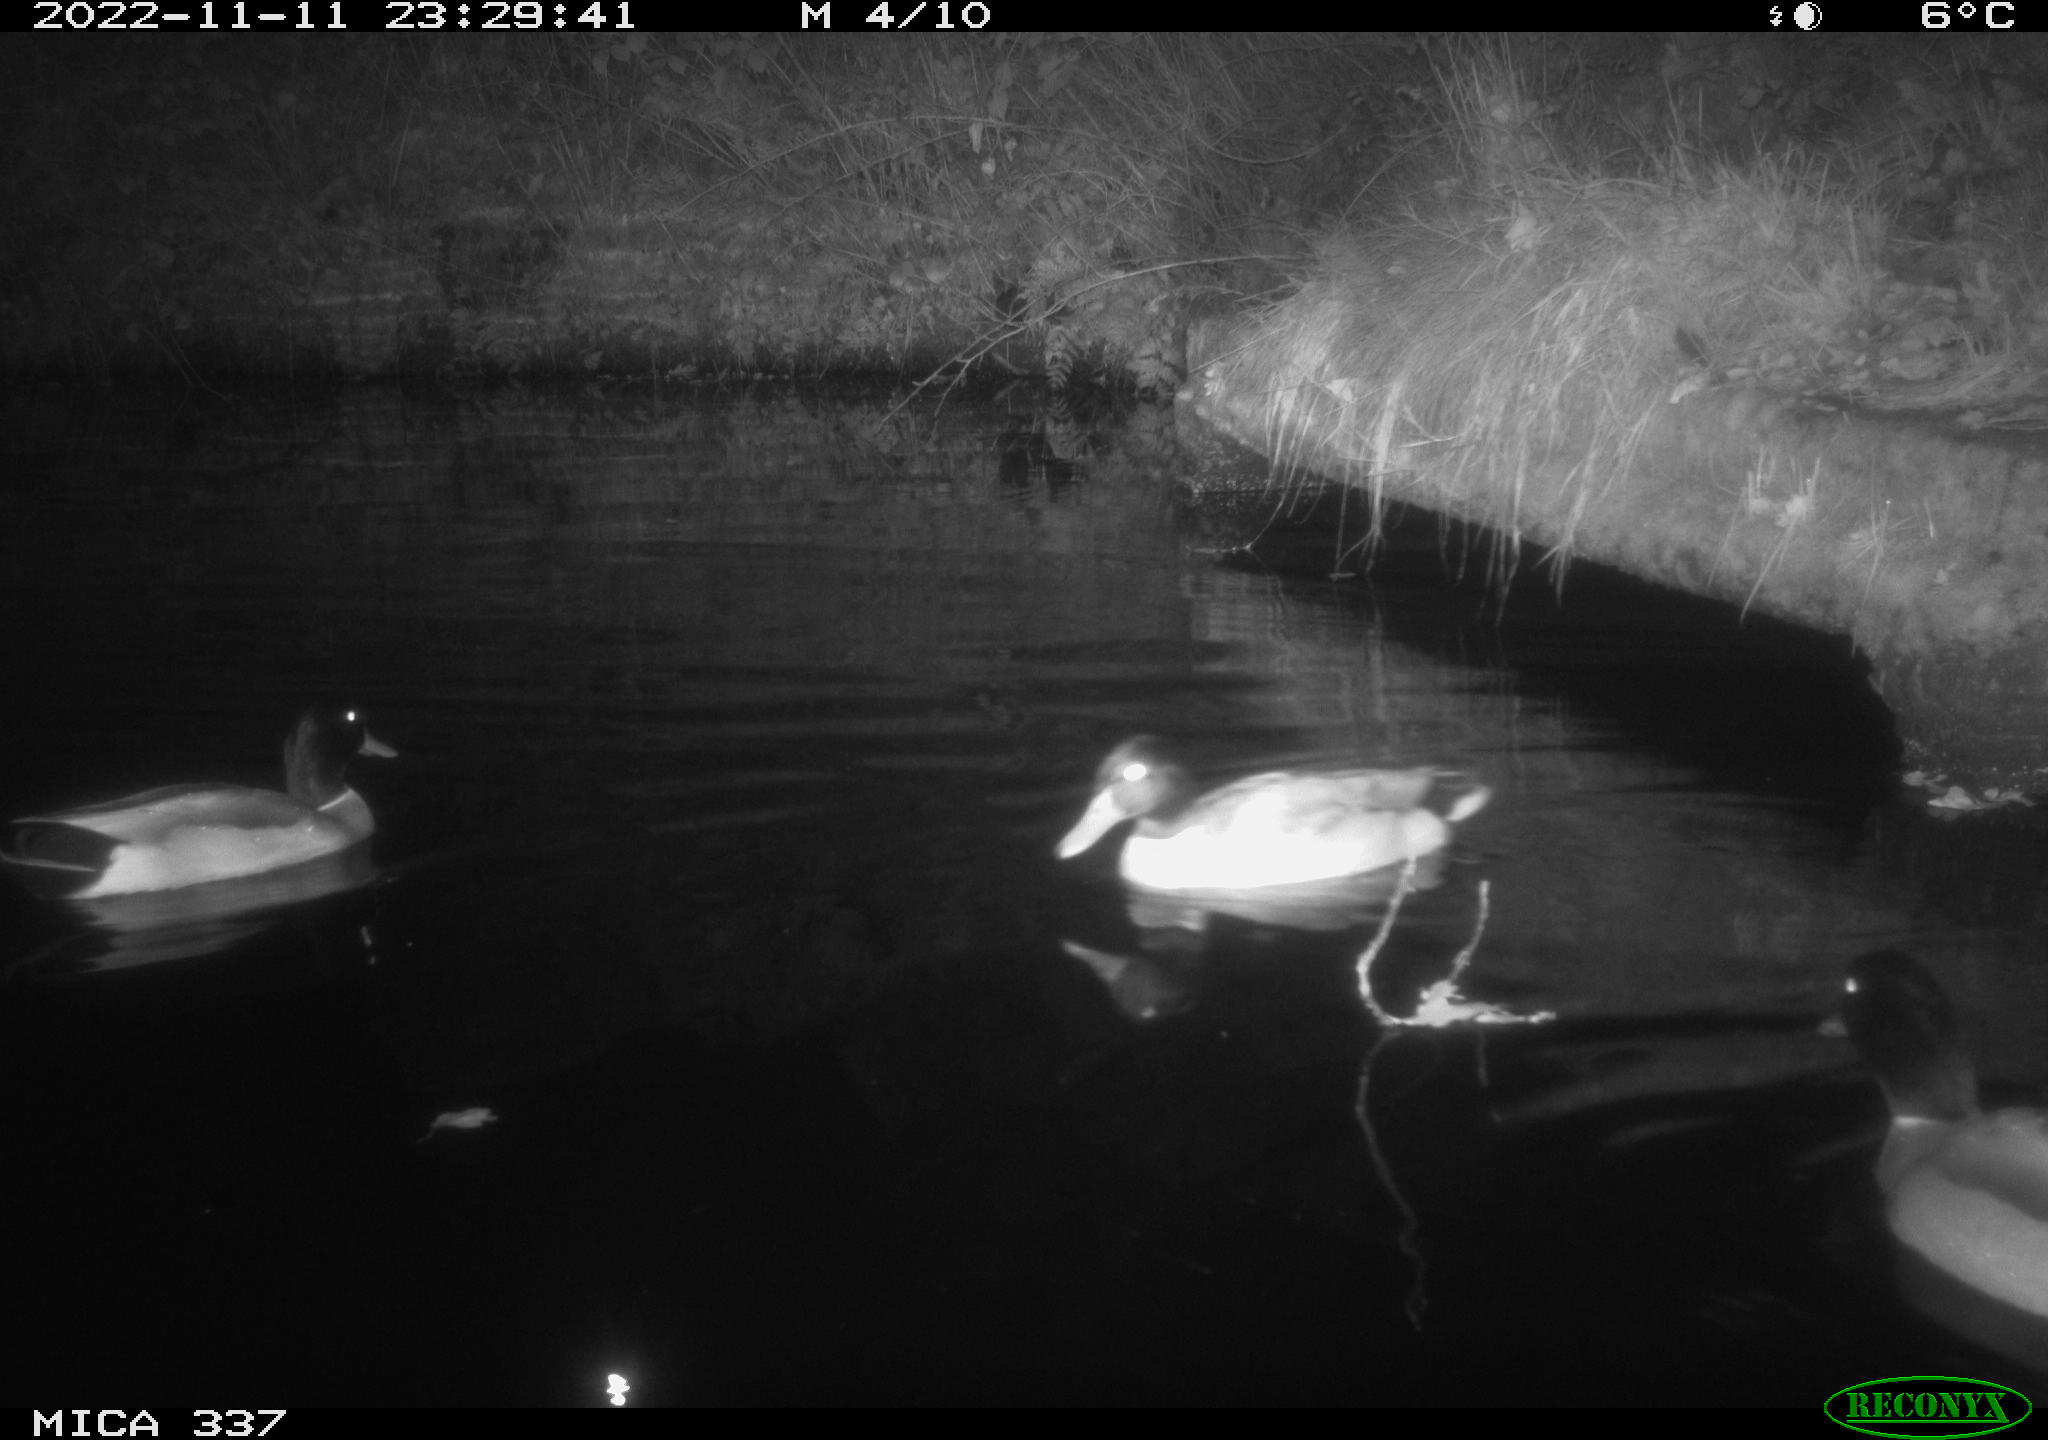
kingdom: Animalia
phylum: Chordata
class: Aves
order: Anseriformes
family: Anatidae
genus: Anas
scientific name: Anas platyrhynchos
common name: Mallard
